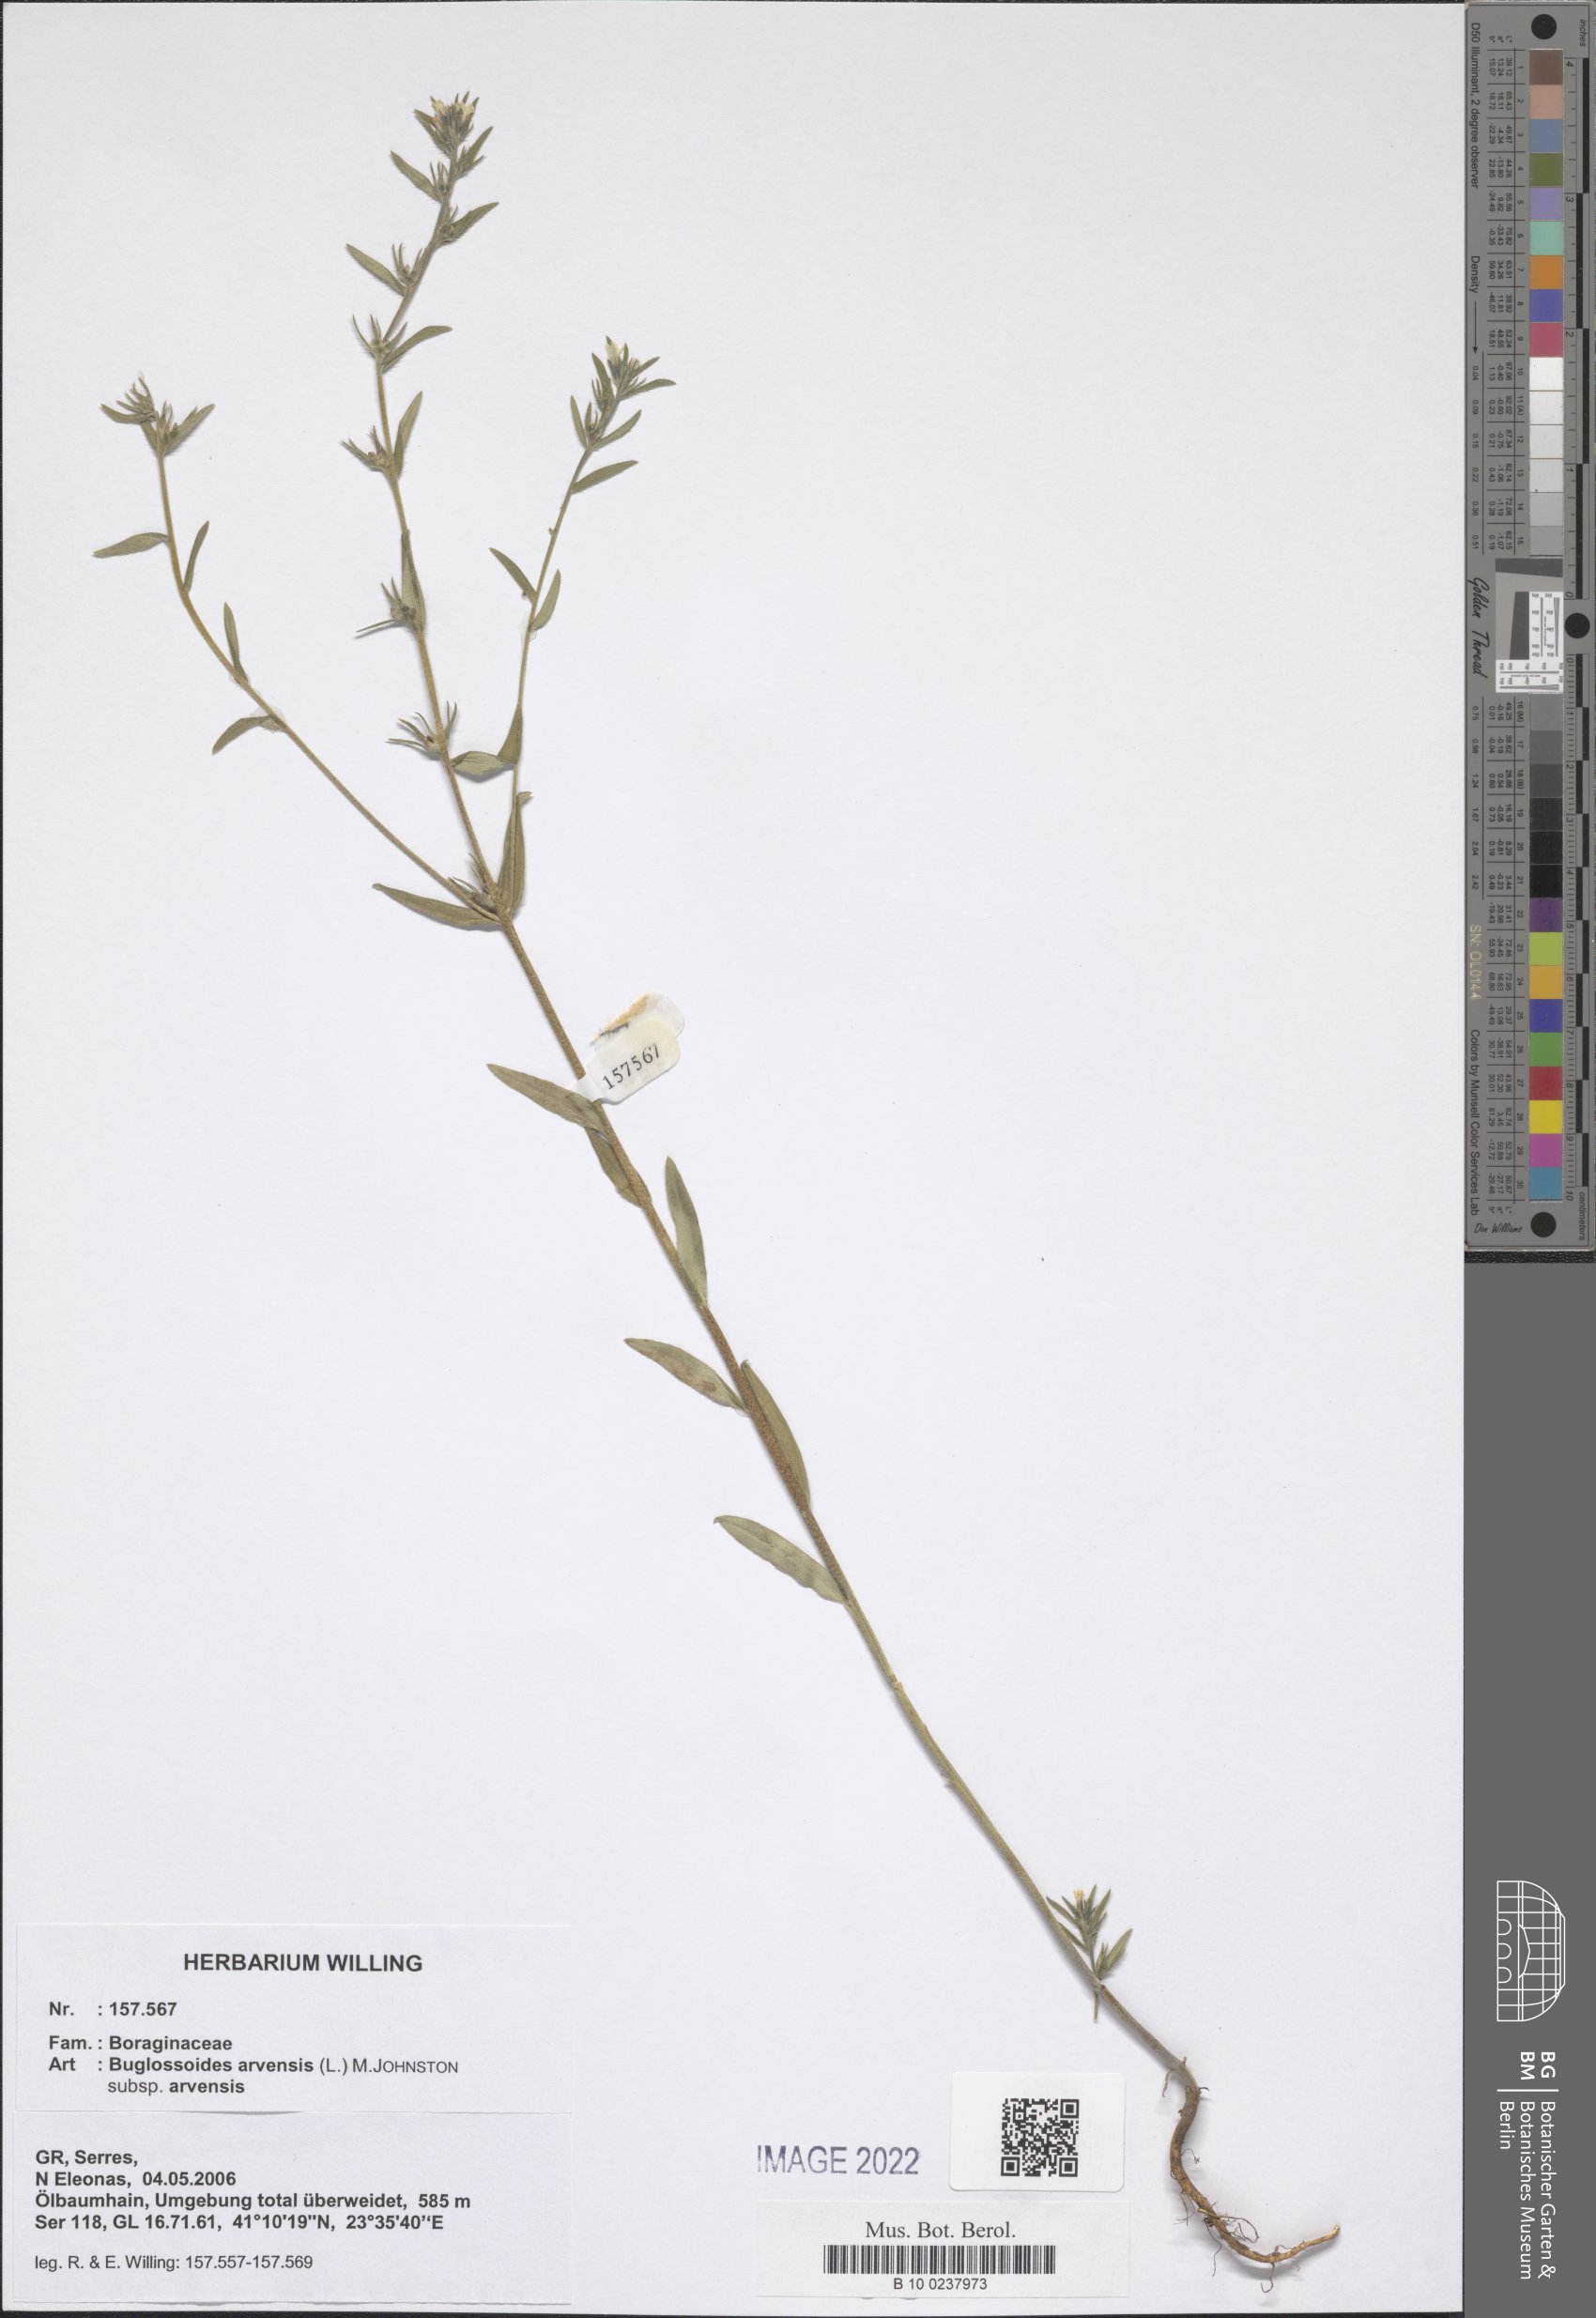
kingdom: Plantae
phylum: Tracheophyta
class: Magnoliopsida
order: Boraginales
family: Boraginaceae
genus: Buglossoides
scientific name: Buglossoides arvensis
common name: Corn gromwell
